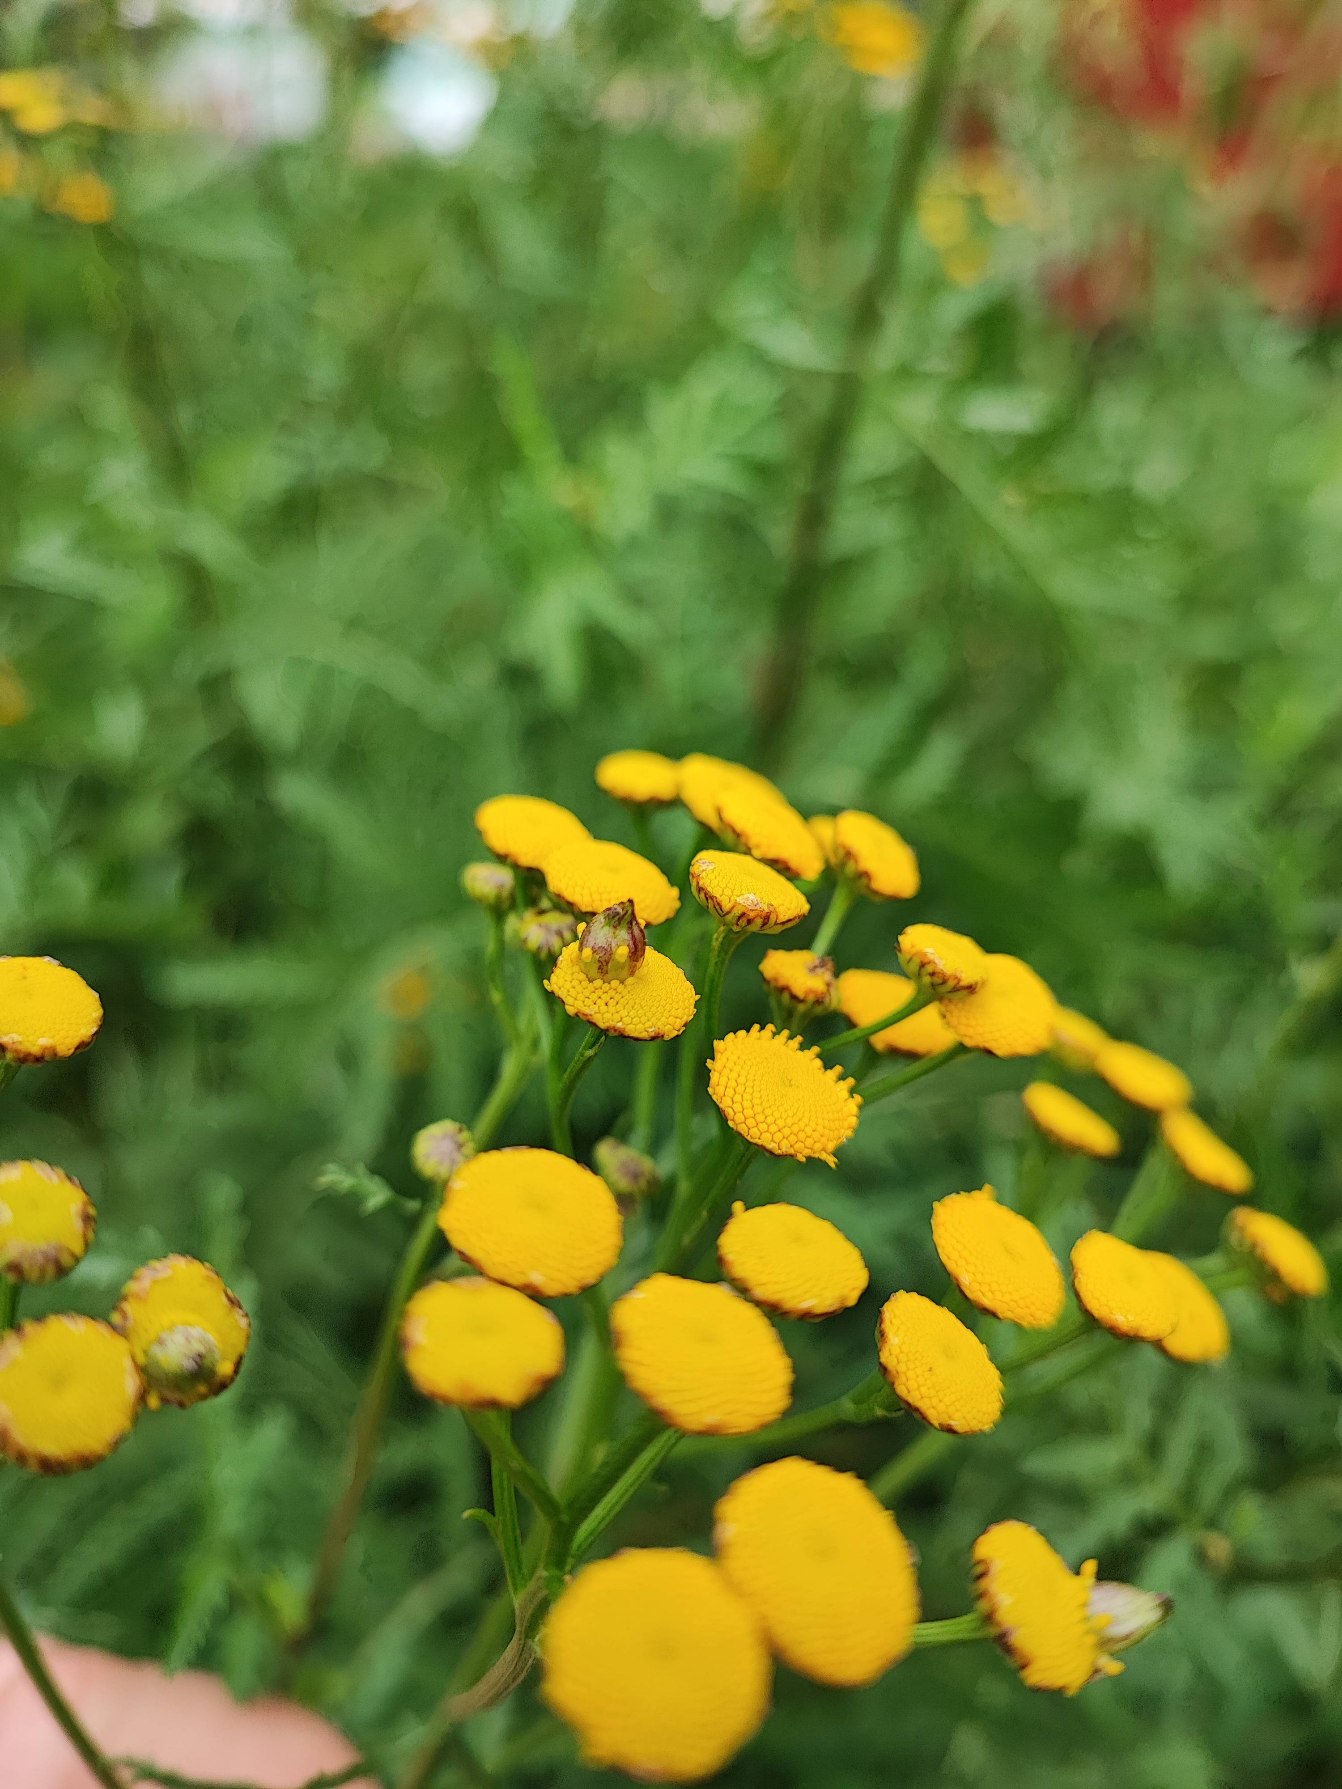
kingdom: Animalia
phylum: Arthropoda
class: Insecta
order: Diptera
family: Cecidomyiidae
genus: Rhopalomyia
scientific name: Rhopalomyia tanaceticolus
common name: Rejnfangalmyg
